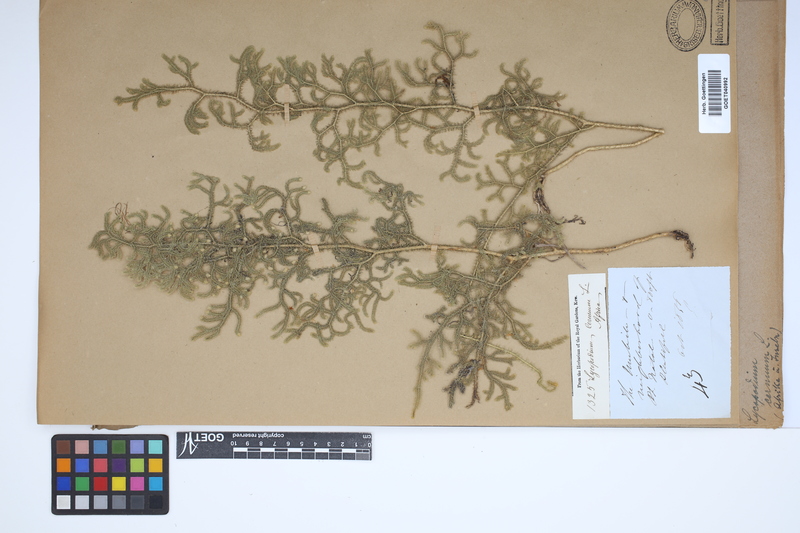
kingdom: Plantae
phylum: Tracheophyta
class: Lycopodiopsida
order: Lycopodiales
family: Lycopodiaceae
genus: Palhinhaea
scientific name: Palhinhaea cernua
